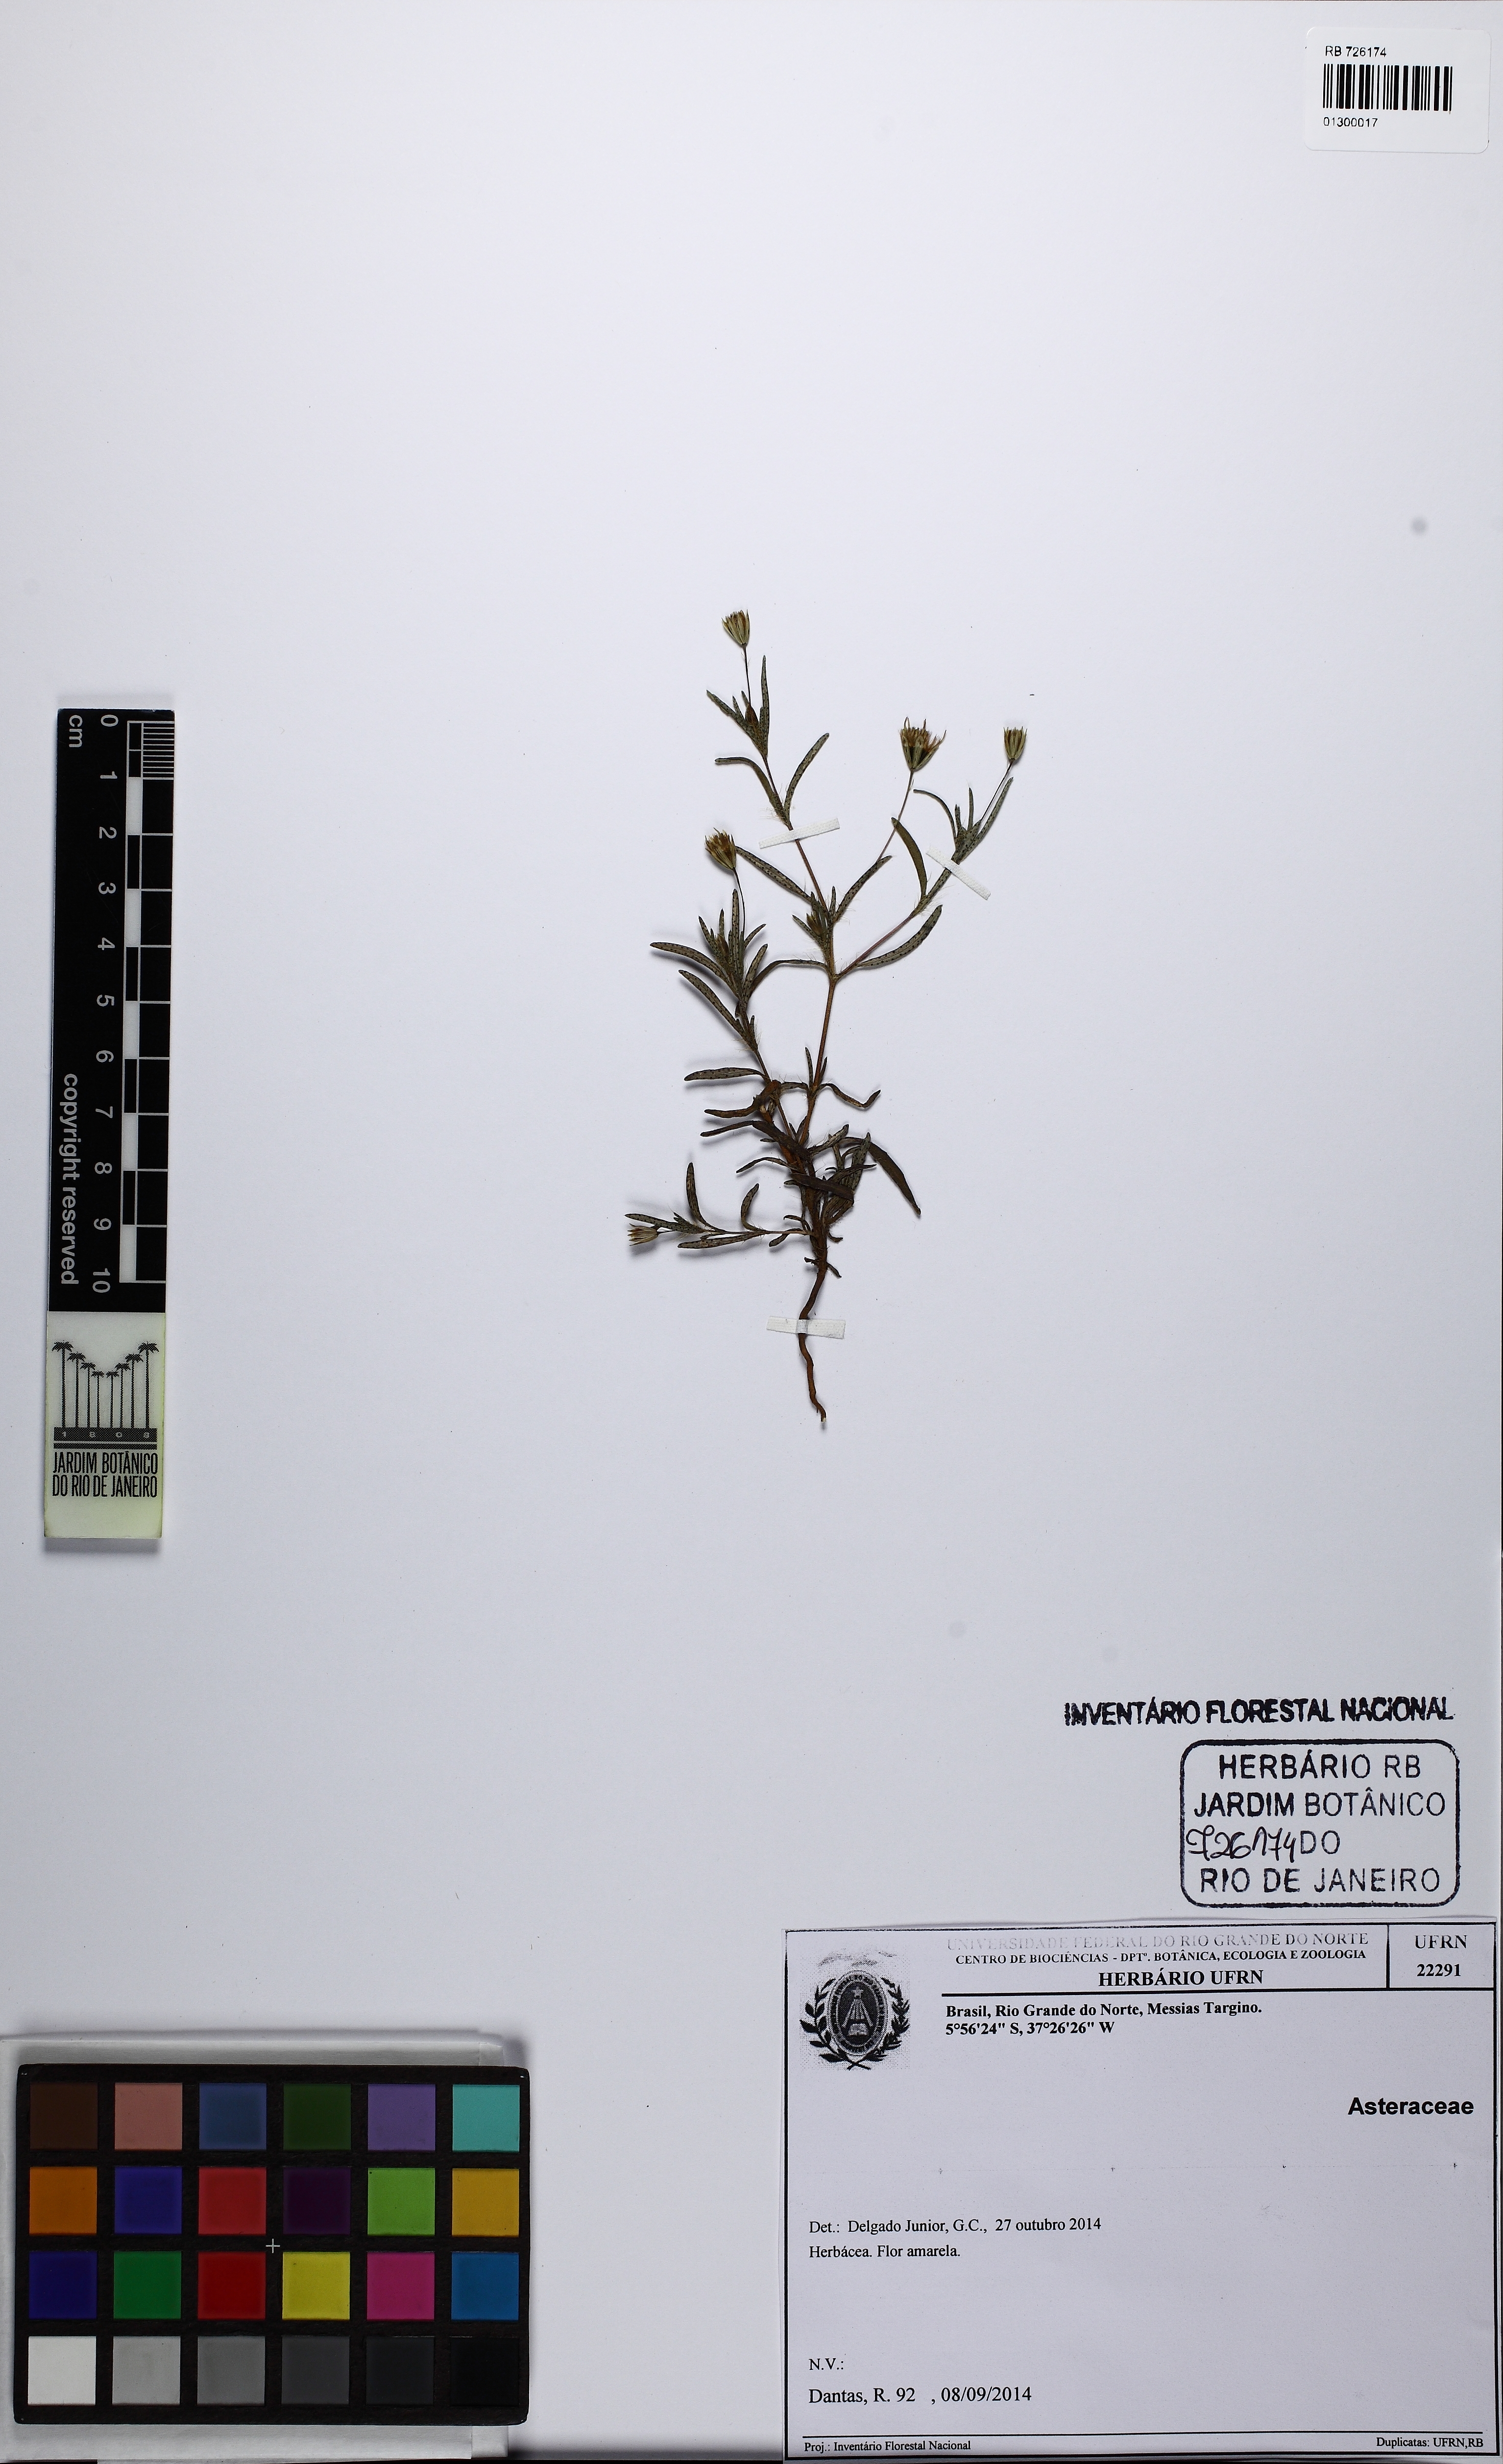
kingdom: Plantae
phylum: Tracheophyta
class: Magnoliopsida
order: Asterales
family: Asteraceae
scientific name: Asteraceae
